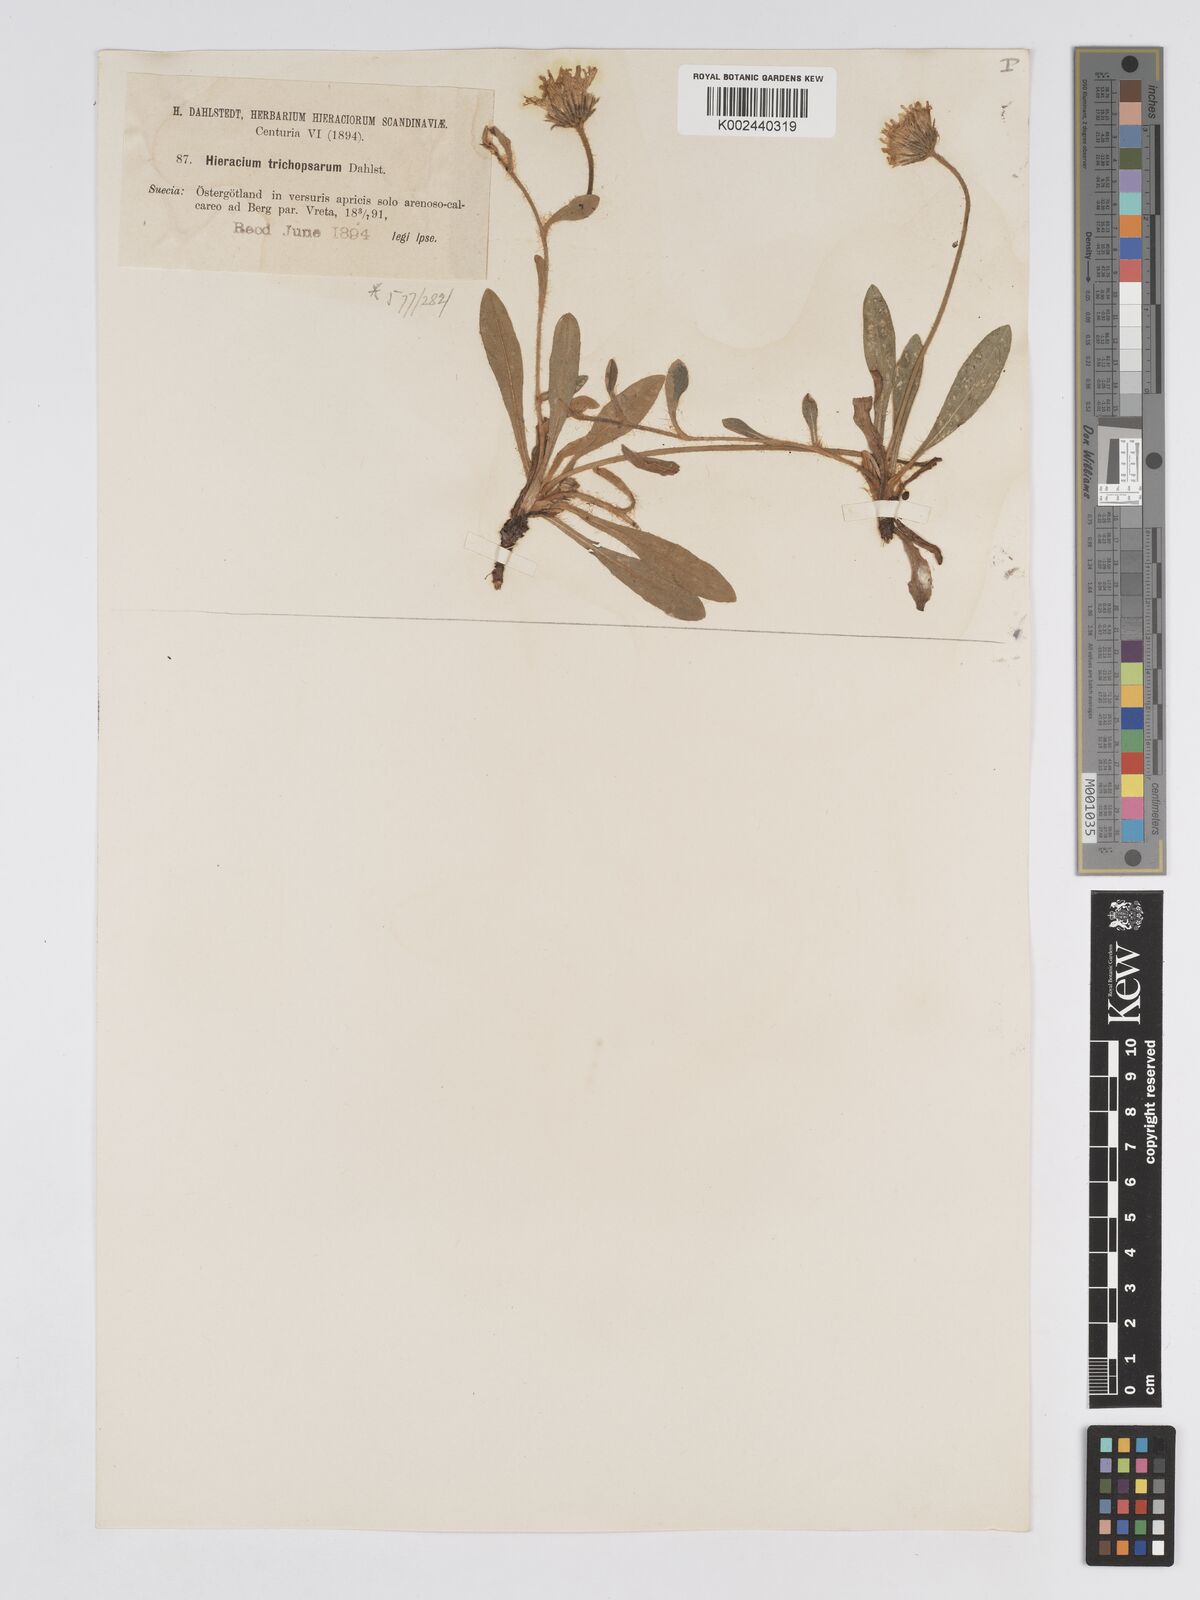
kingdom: Plantae
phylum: Tracheophyta
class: Magnoliopsida
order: Asterales
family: Asteraceae
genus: Pilosella
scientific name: Pilosella officinarum
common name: Mouse-ear hawkweed
